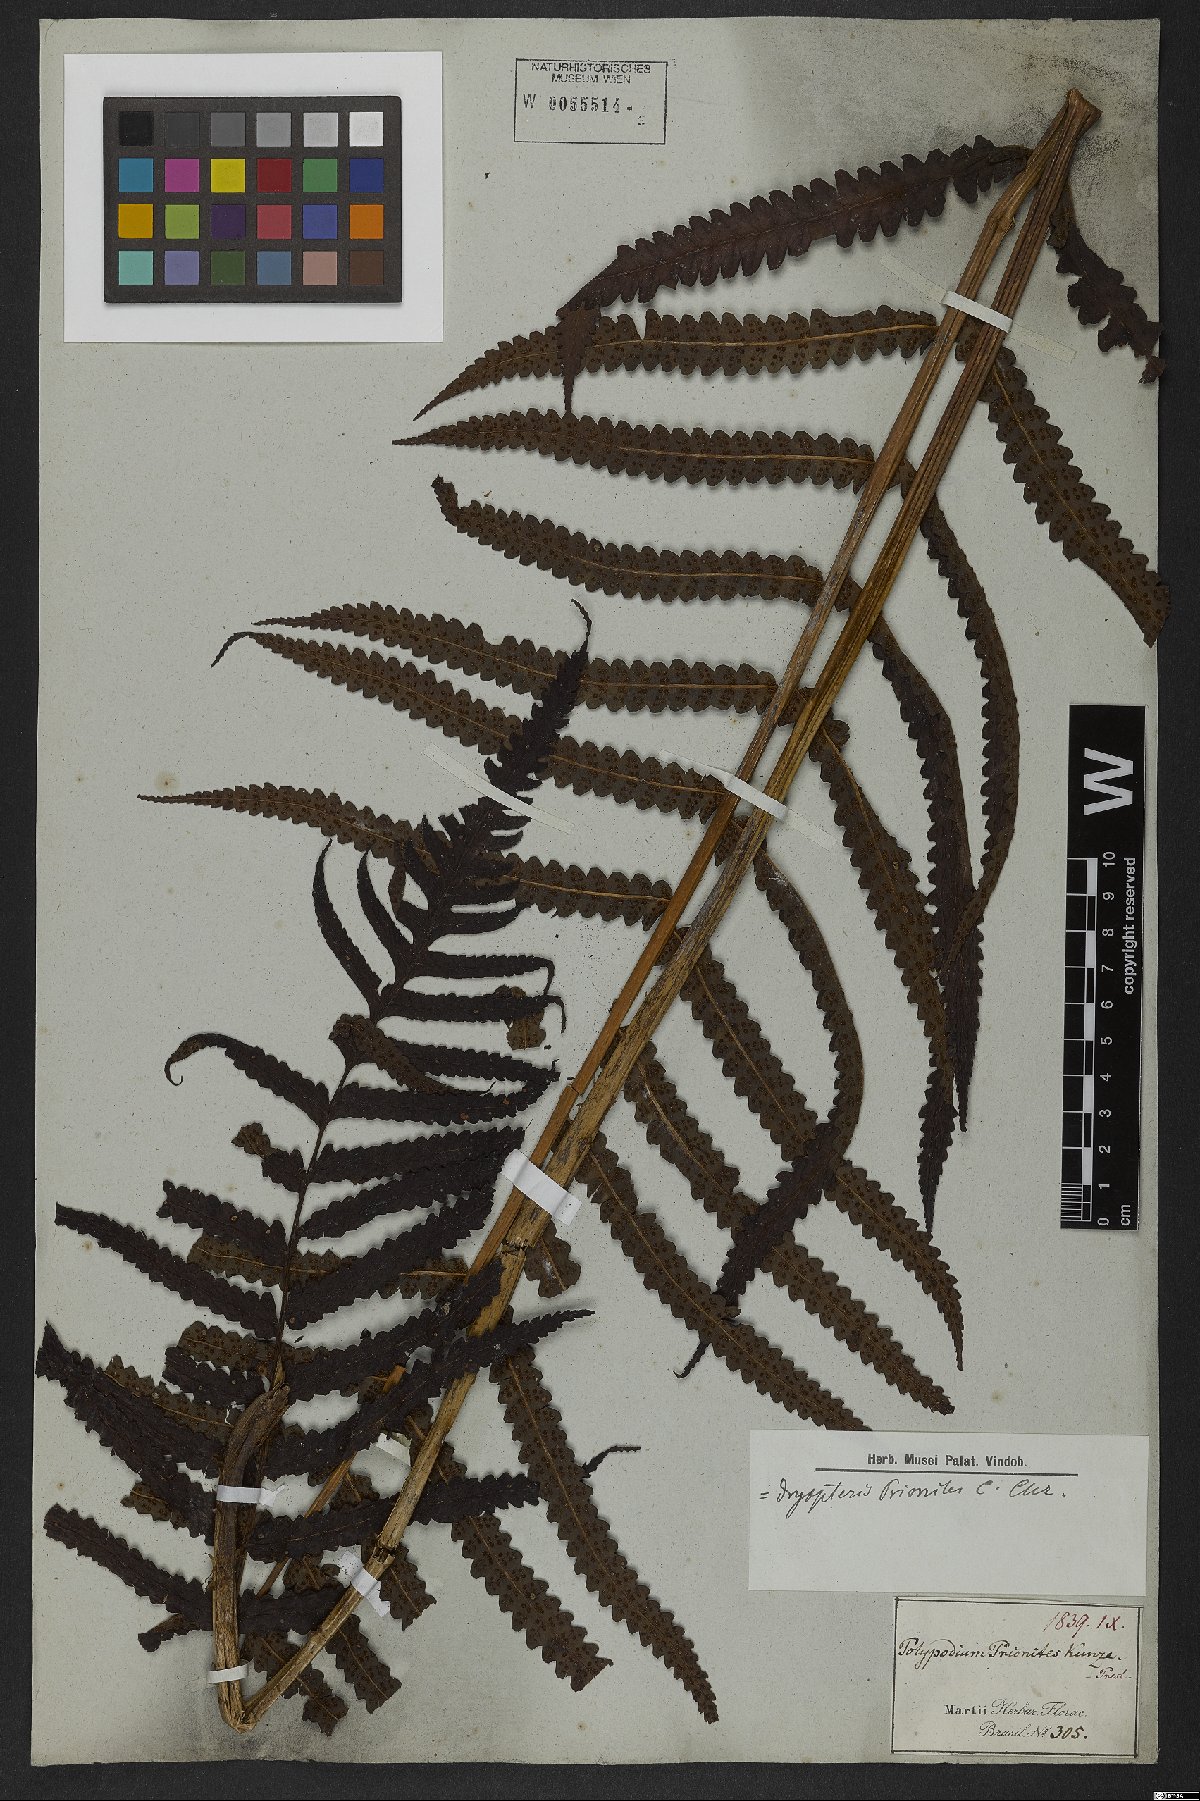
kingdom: Plantae
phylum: Tracheophyta
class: Polypodiopsida
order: Polypodiales
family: Dryopteridaceae
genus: Stigmatopteris
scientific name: Stigmatopteris prionites
